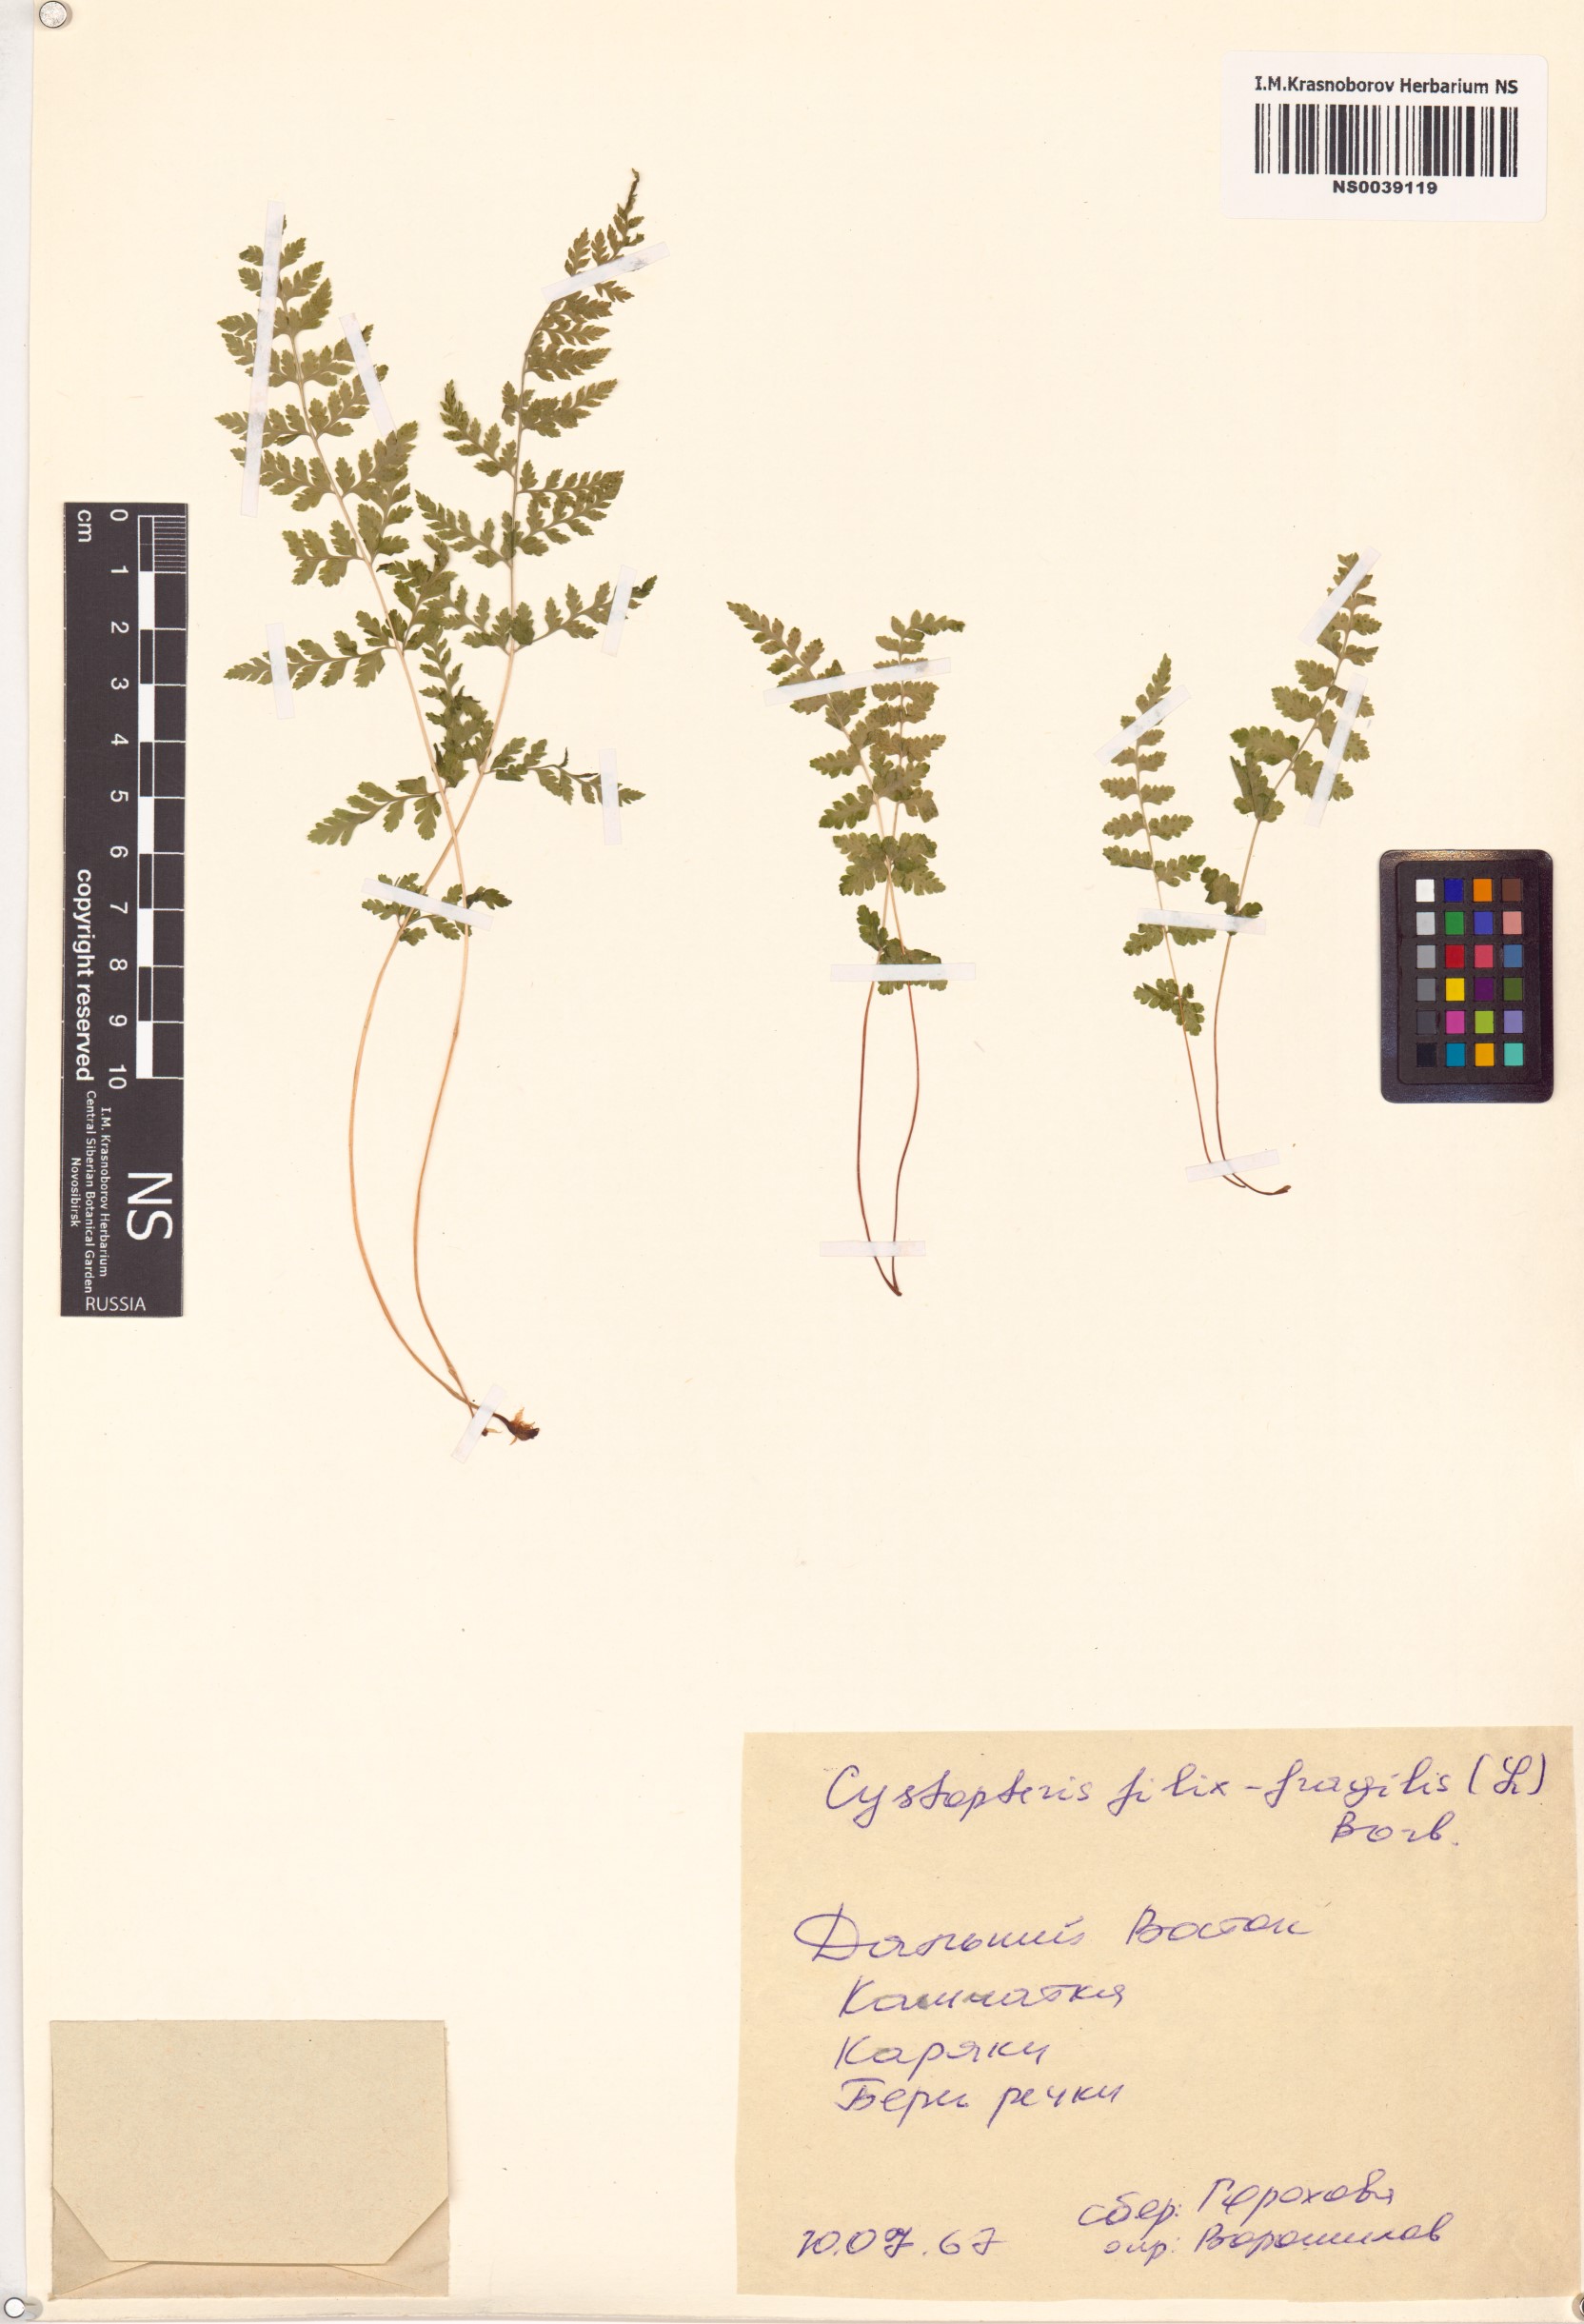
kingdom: Plantae
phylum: Tracheophyta
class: Polypodiopsida
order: Polypodiales
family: Cystopteridaceae
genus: Cystopteris
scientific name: Cystopteris fragilis
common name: Brittle bladder fern
